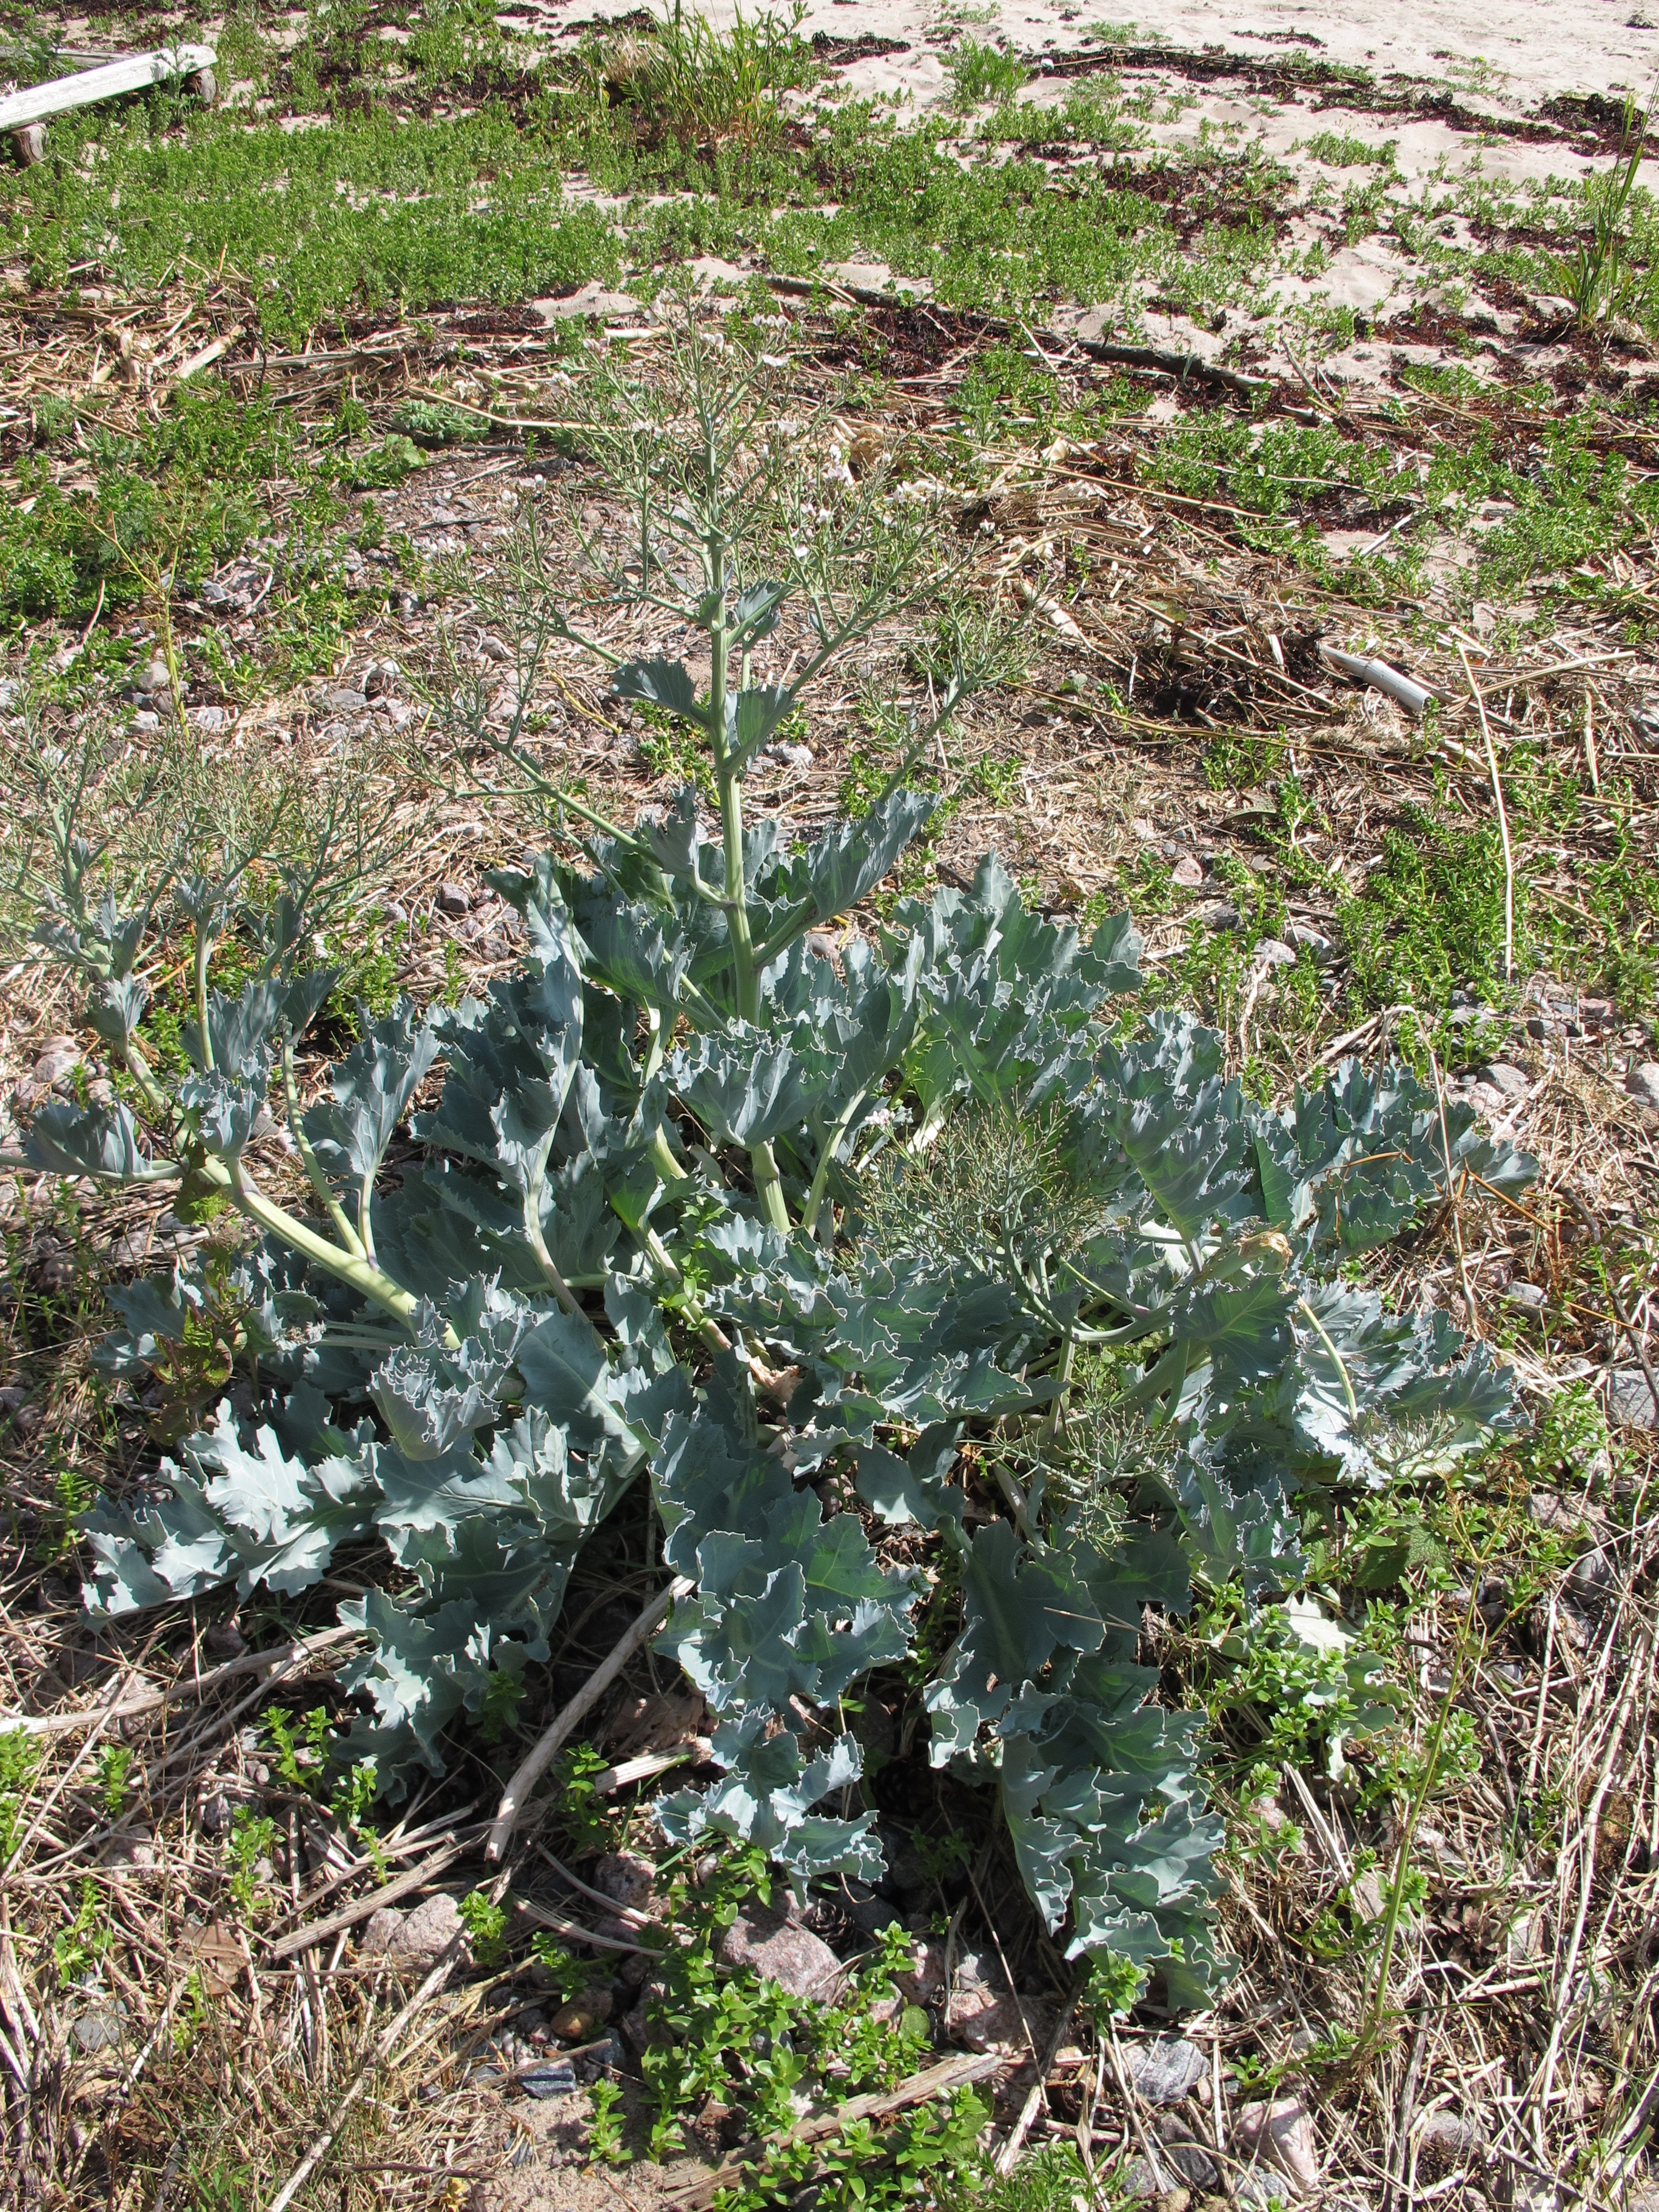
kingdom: Plantae
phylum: Tracheophyta
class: Magnoliopsida
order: Brassicales
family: Brassicaceae
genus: Crambe
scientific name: Crambe maritima
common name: Sea-kale
